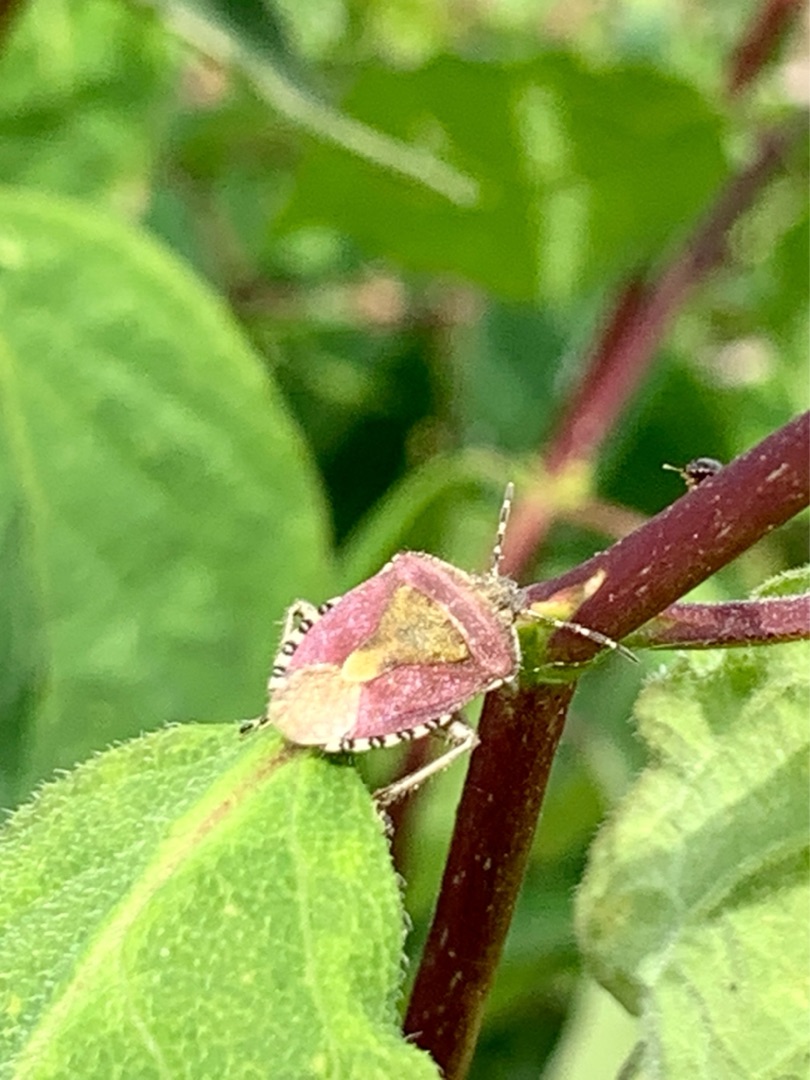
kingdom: Animalia
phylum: Arthropoda
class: Insecta
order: Hemiptera
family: Pentatomidae
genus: Dolycoris
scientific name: Dolycoris baccarum
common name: Almindelig bærtæge
